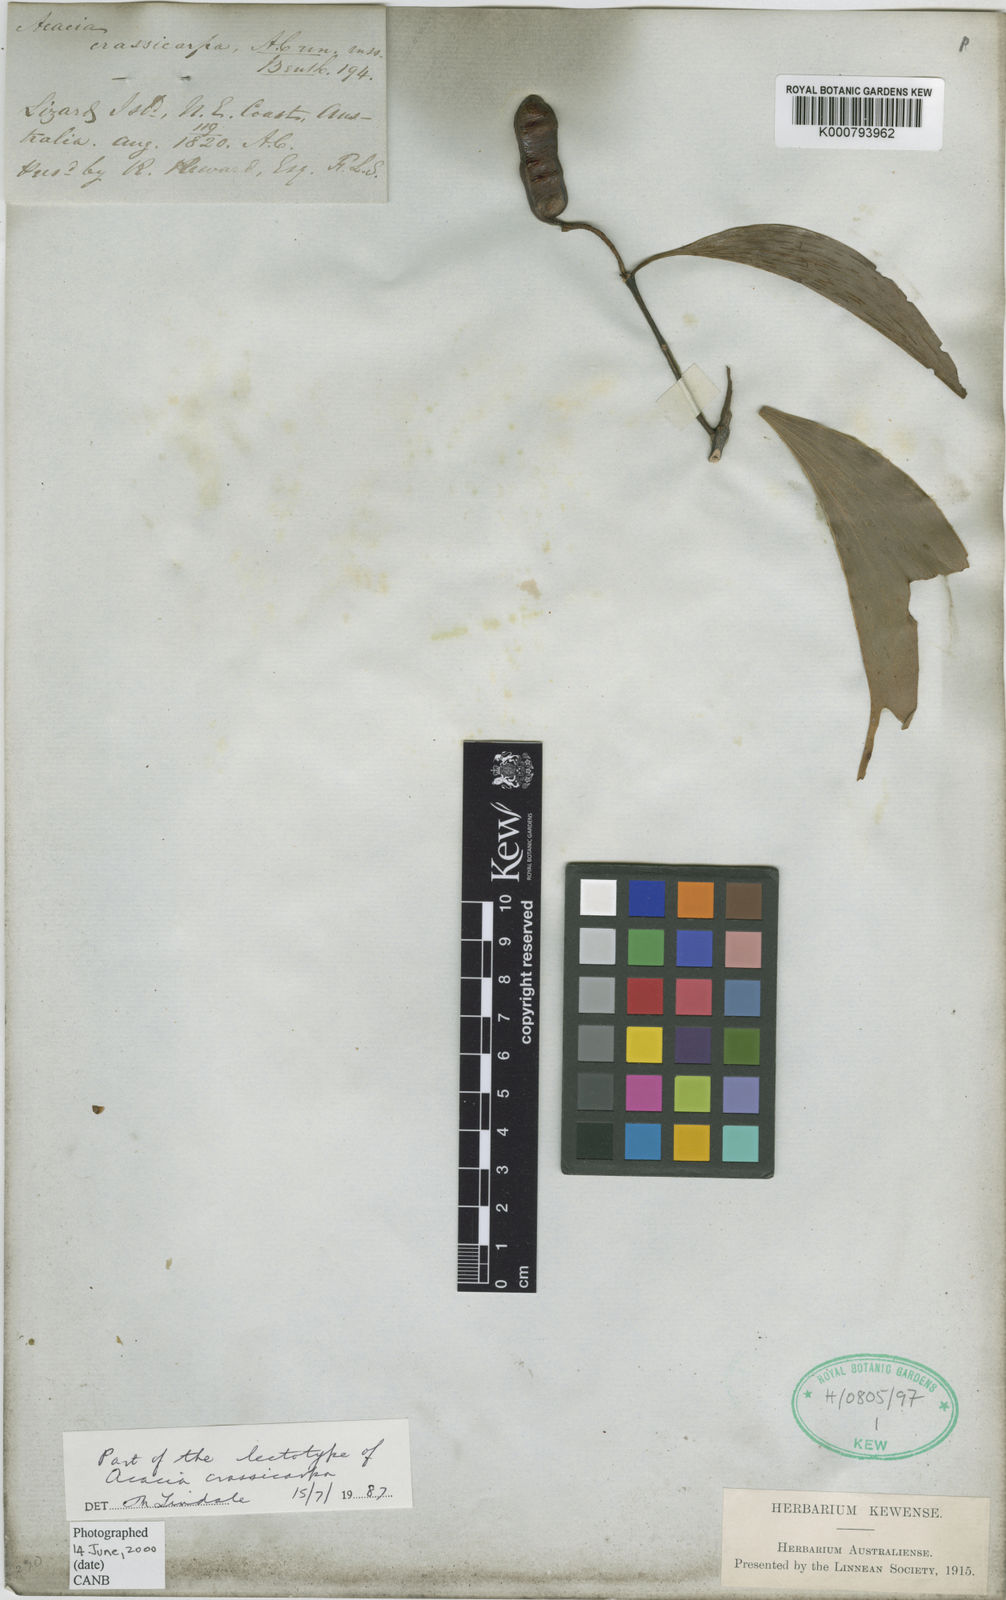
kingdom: Plantae
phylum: Tracheophyta
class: Magnoliopsida
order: Fabales
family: Fabaceae
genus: Acacia
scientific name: Acacia aulacocarpa
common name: Black wattle
